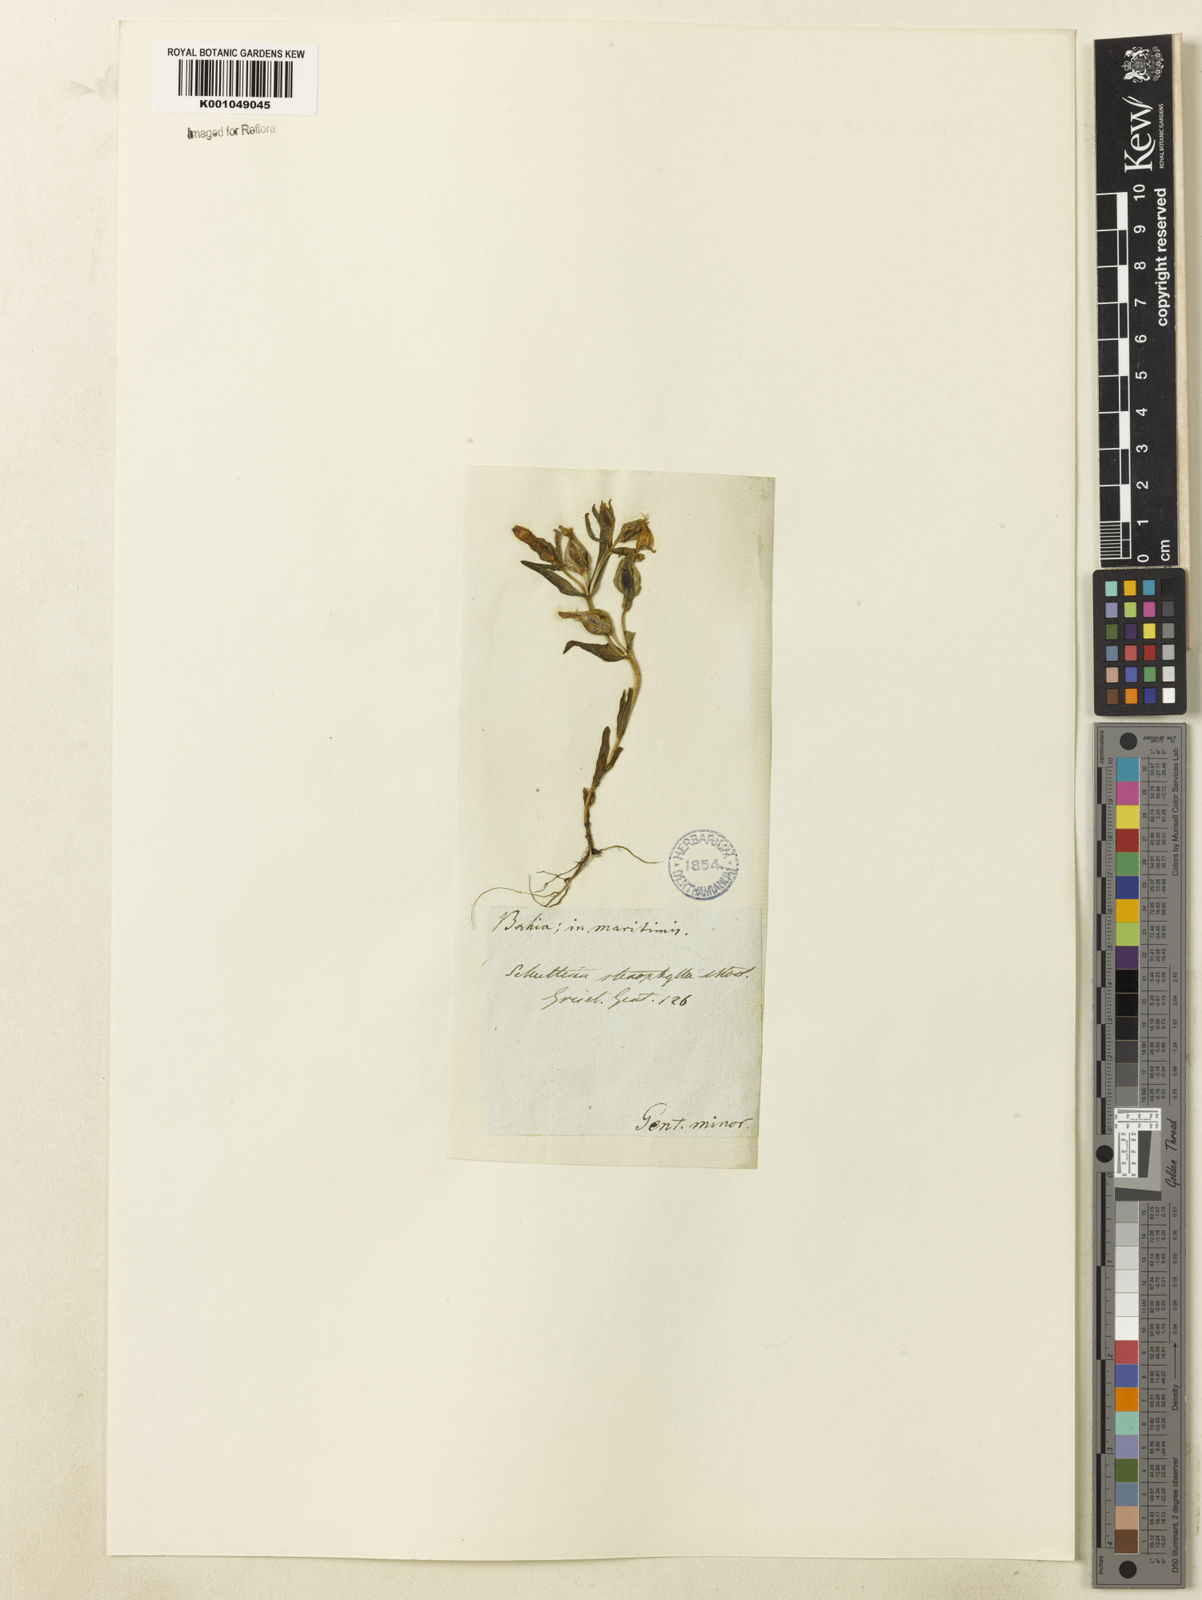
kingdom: Plantae
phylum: Tracheophyta
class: Magnoliopsida
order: Gentianales
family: Gentianaceae
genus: Schultesia
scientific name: Schultesia guianensis
